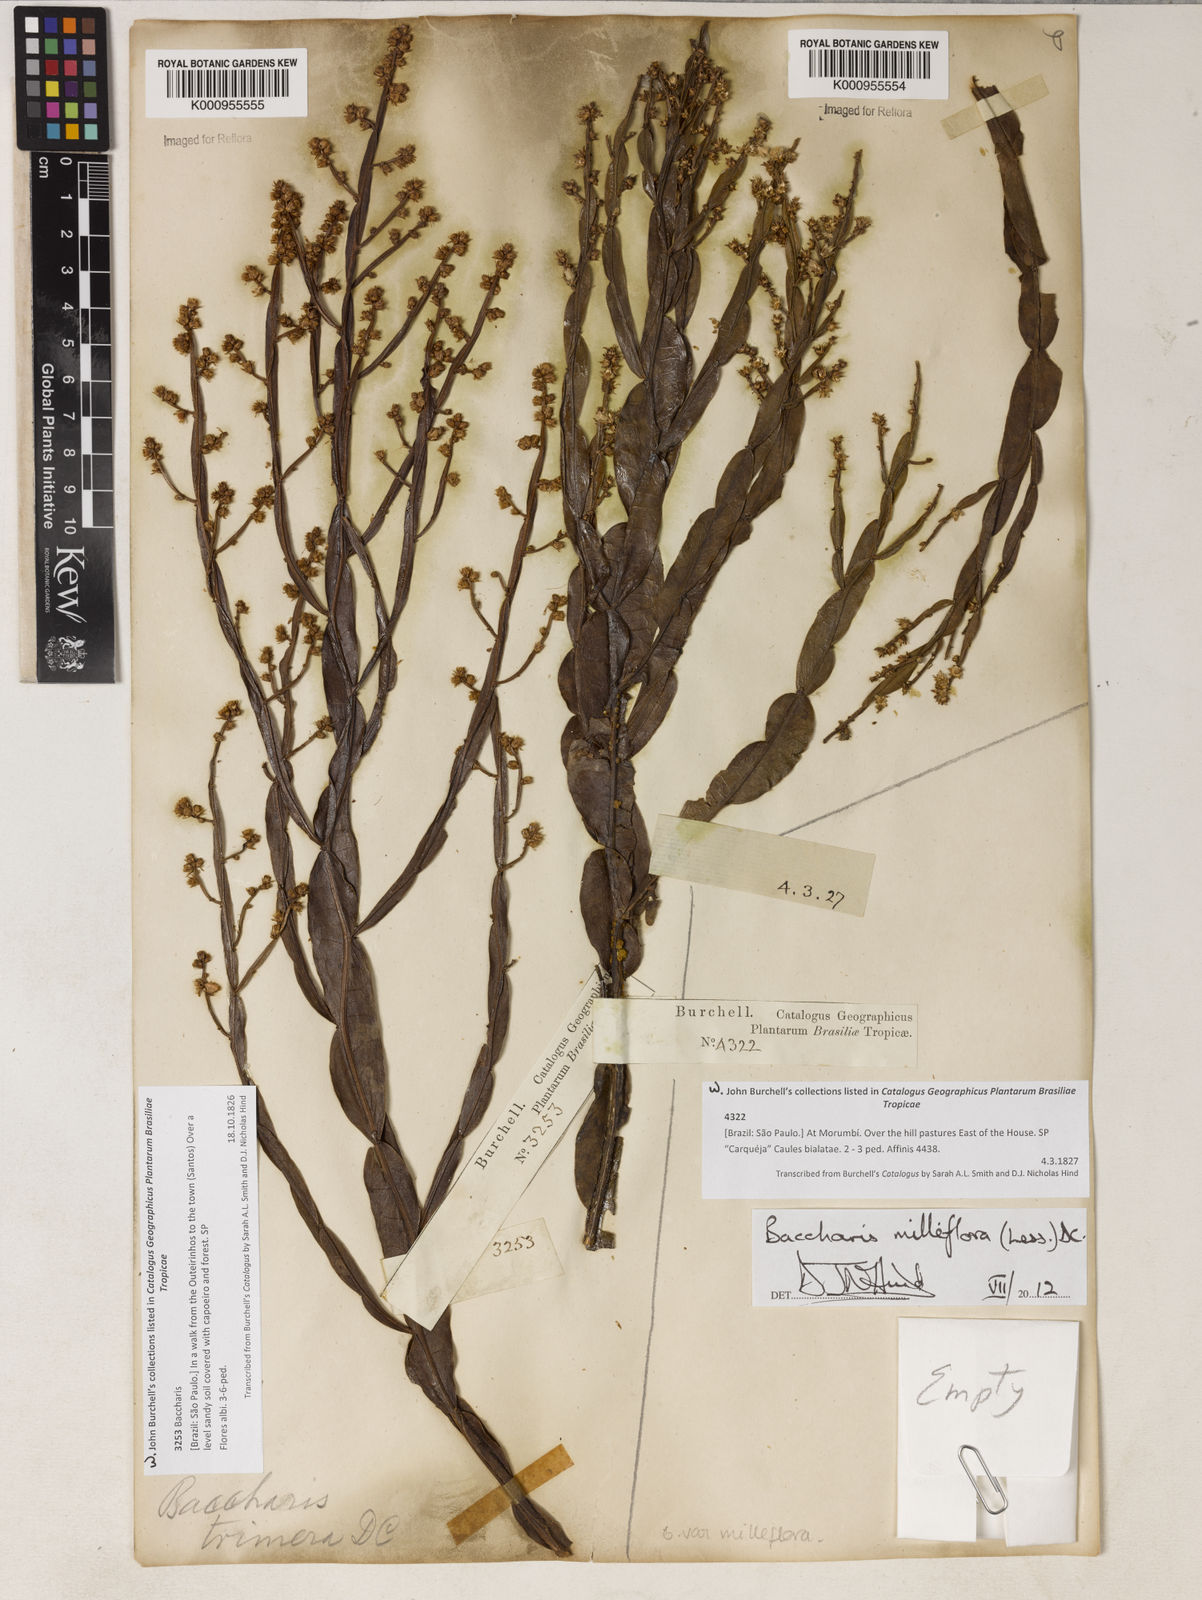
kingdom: Plantae
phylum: Tracheophyta
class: Magnoliopsida
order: Asterales
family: Asteraceae
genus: Baccharis
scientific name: Baccharis milleflora
